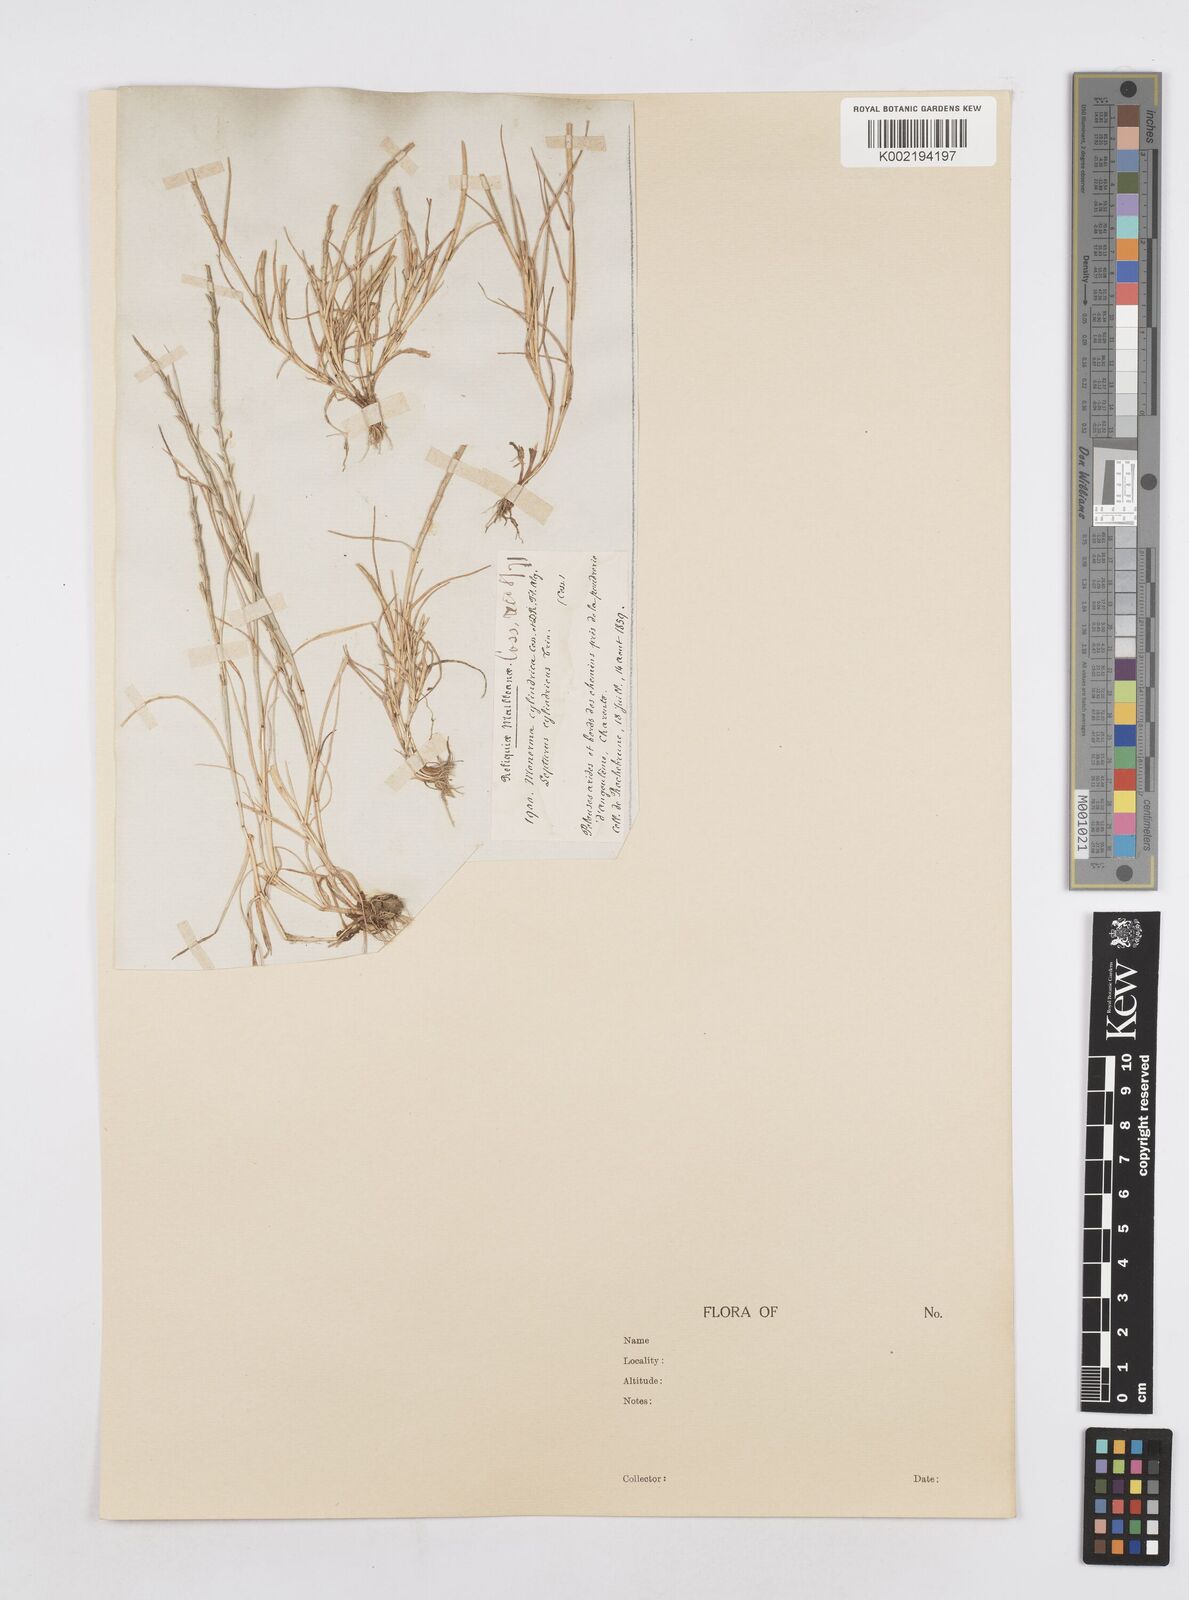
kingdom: Plantae
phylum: Tracheophyta
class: Liliopsida
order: Poales
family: Poaceae
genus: Parapholis
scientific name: Parapholis cylindrica
